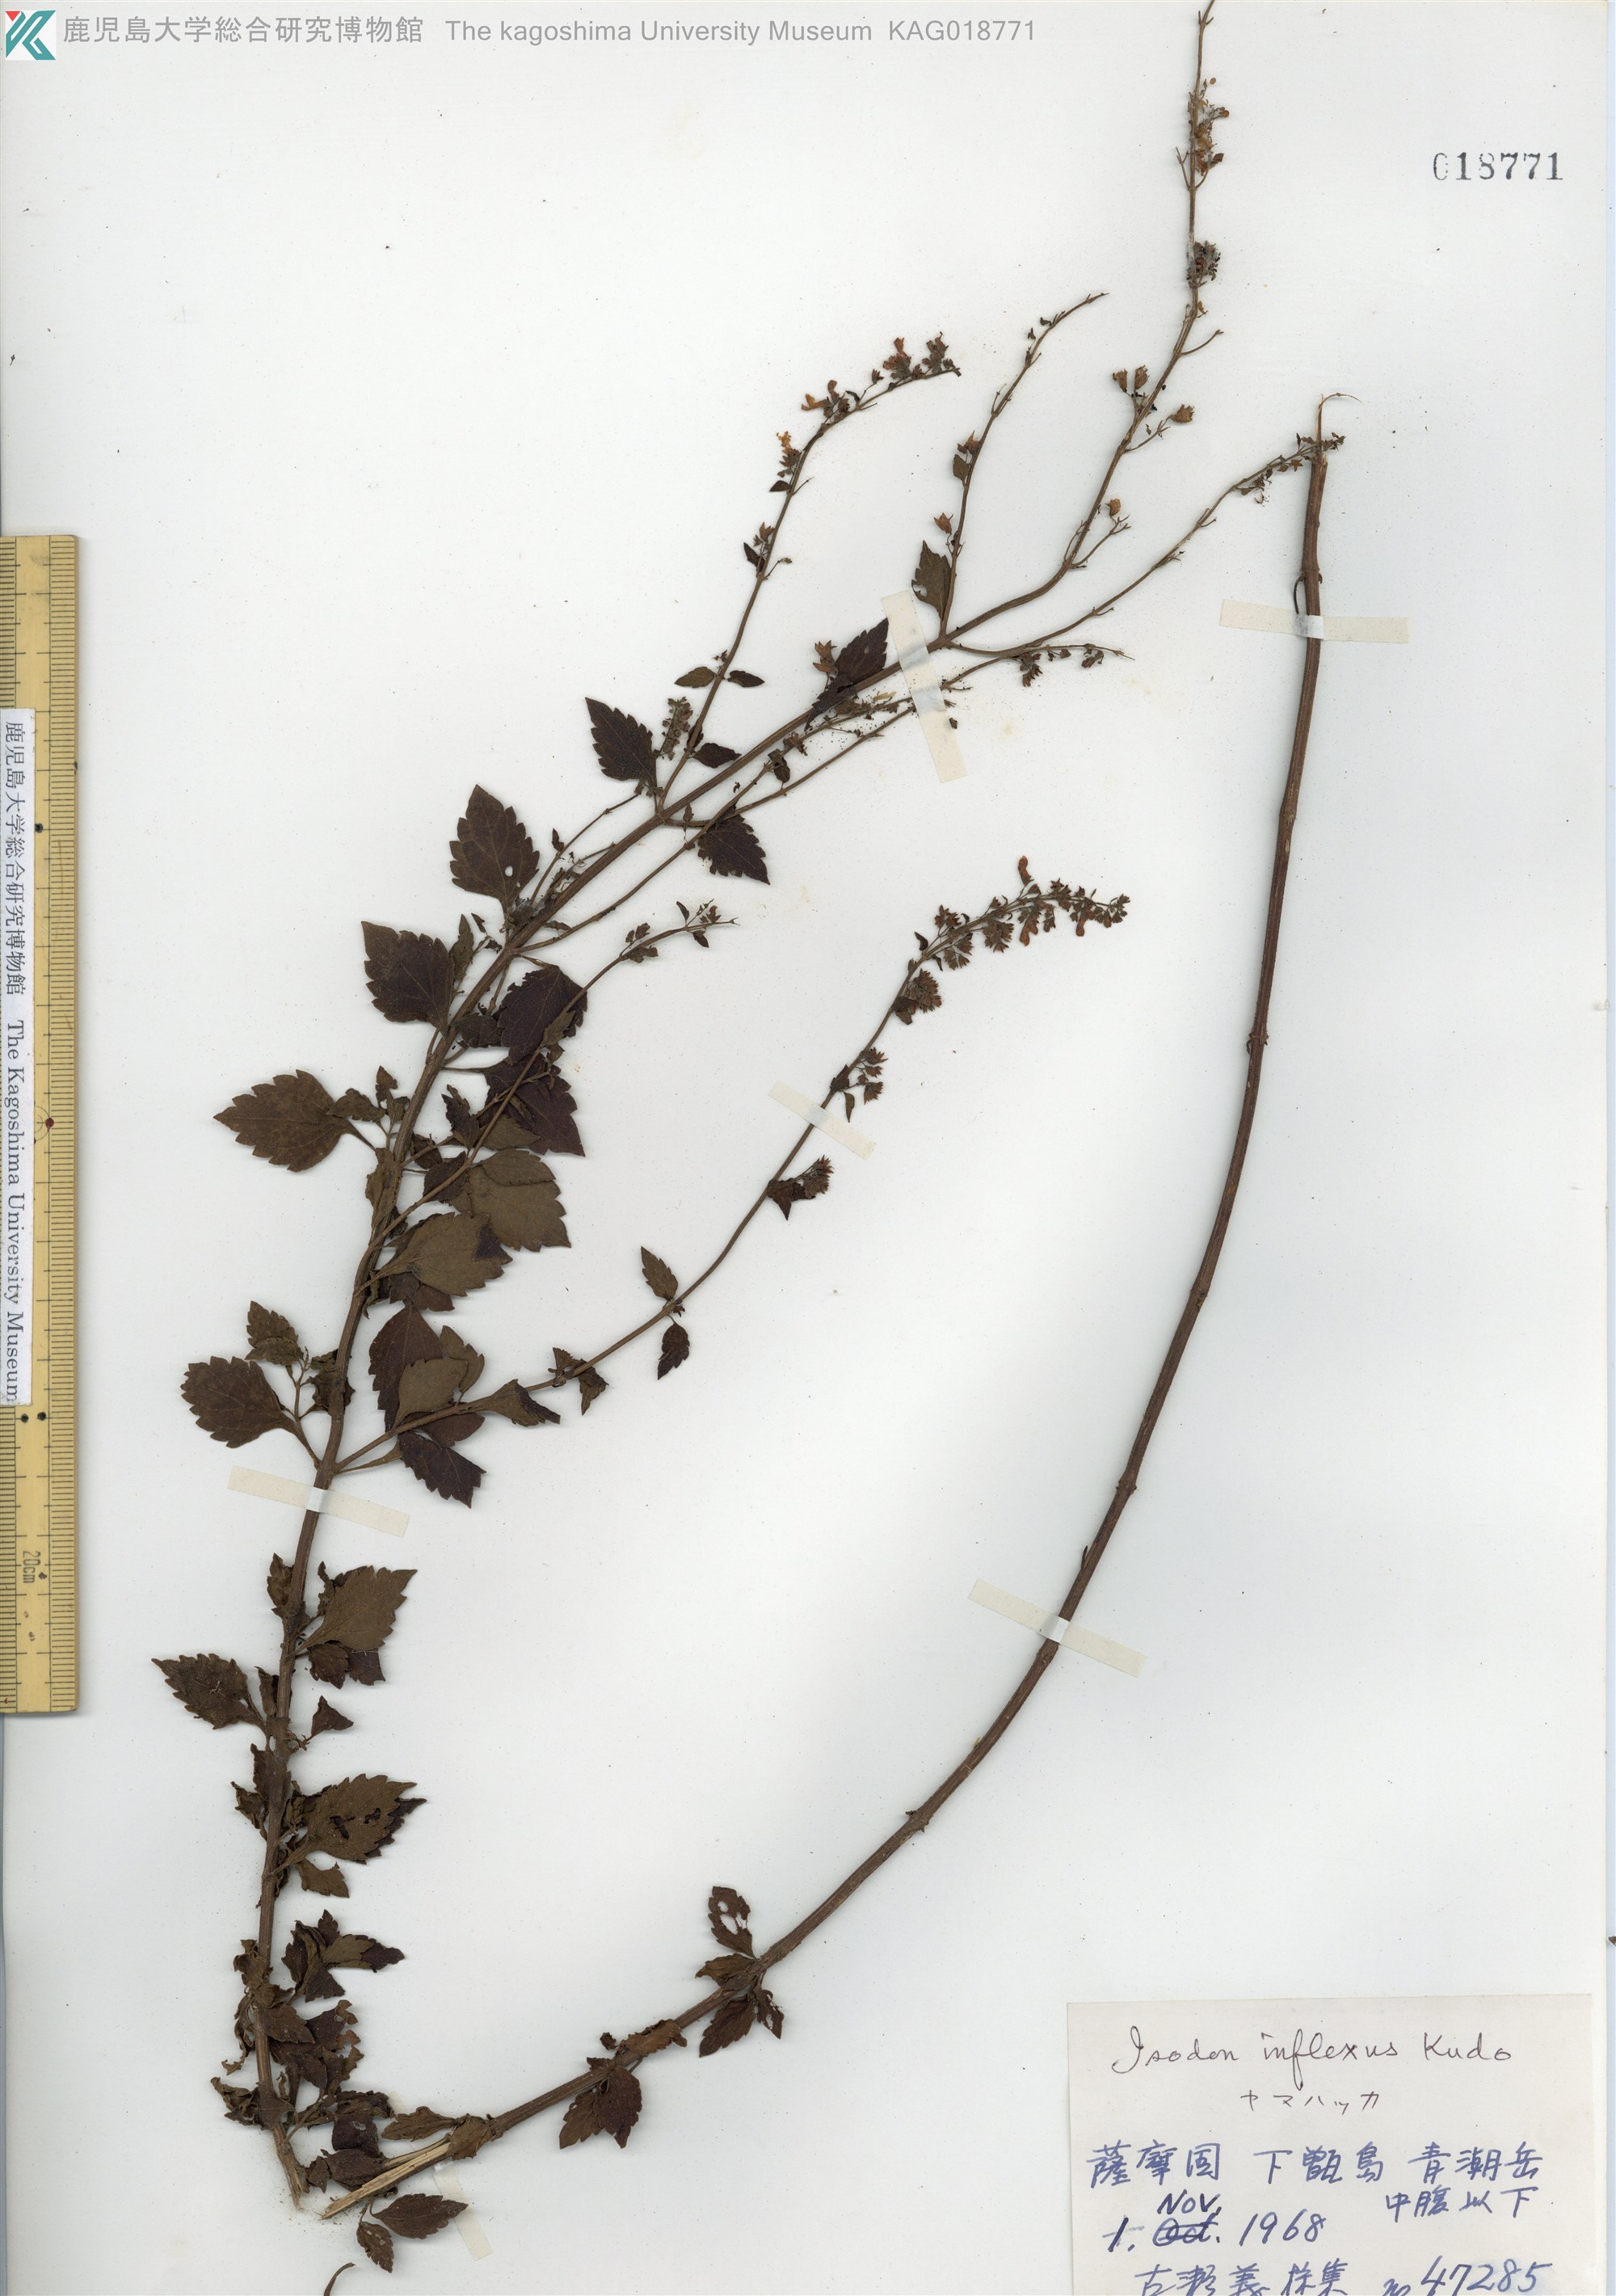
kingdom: Plantae
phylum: Tracheophyta
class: Magnoliopsida
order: Lamiales
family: Lamiaceae
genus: Isodon
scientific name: Isodon inflexus
